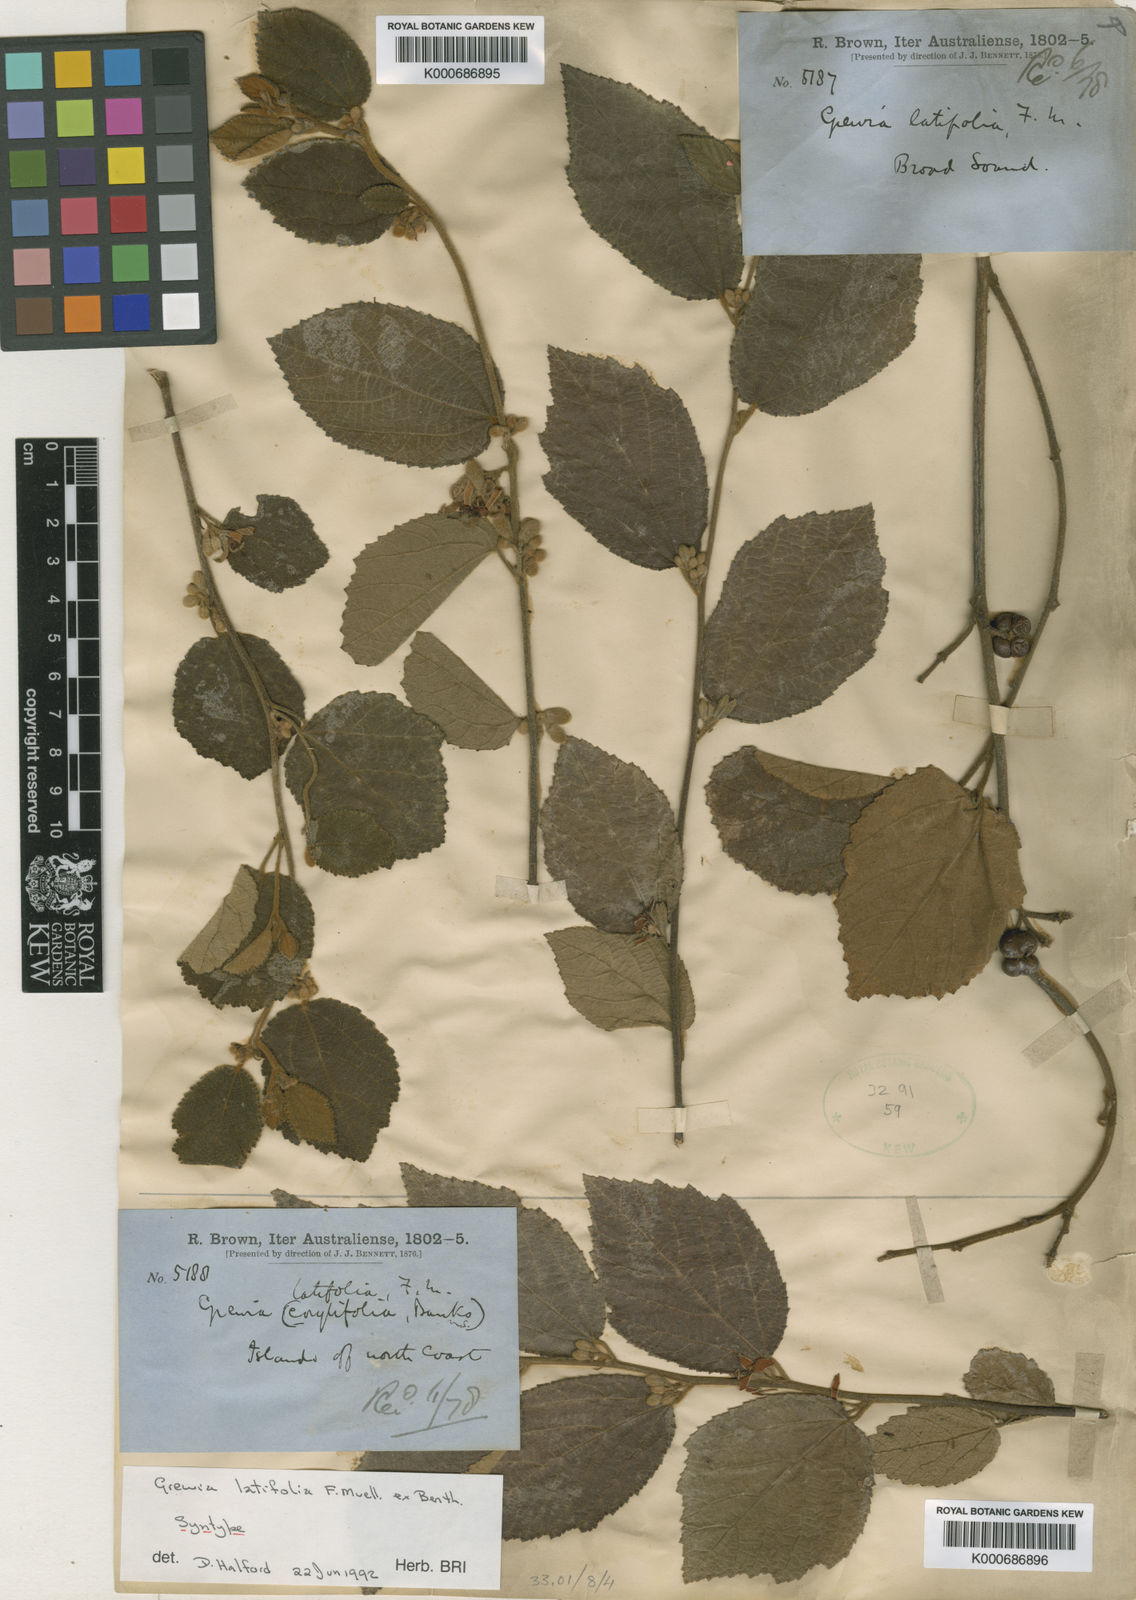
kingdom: Plantae
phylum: Tracheophyta
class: Magnoliopsida
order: Malvales
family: Malvaceae
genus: Grewia
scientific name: Grewia apetala
